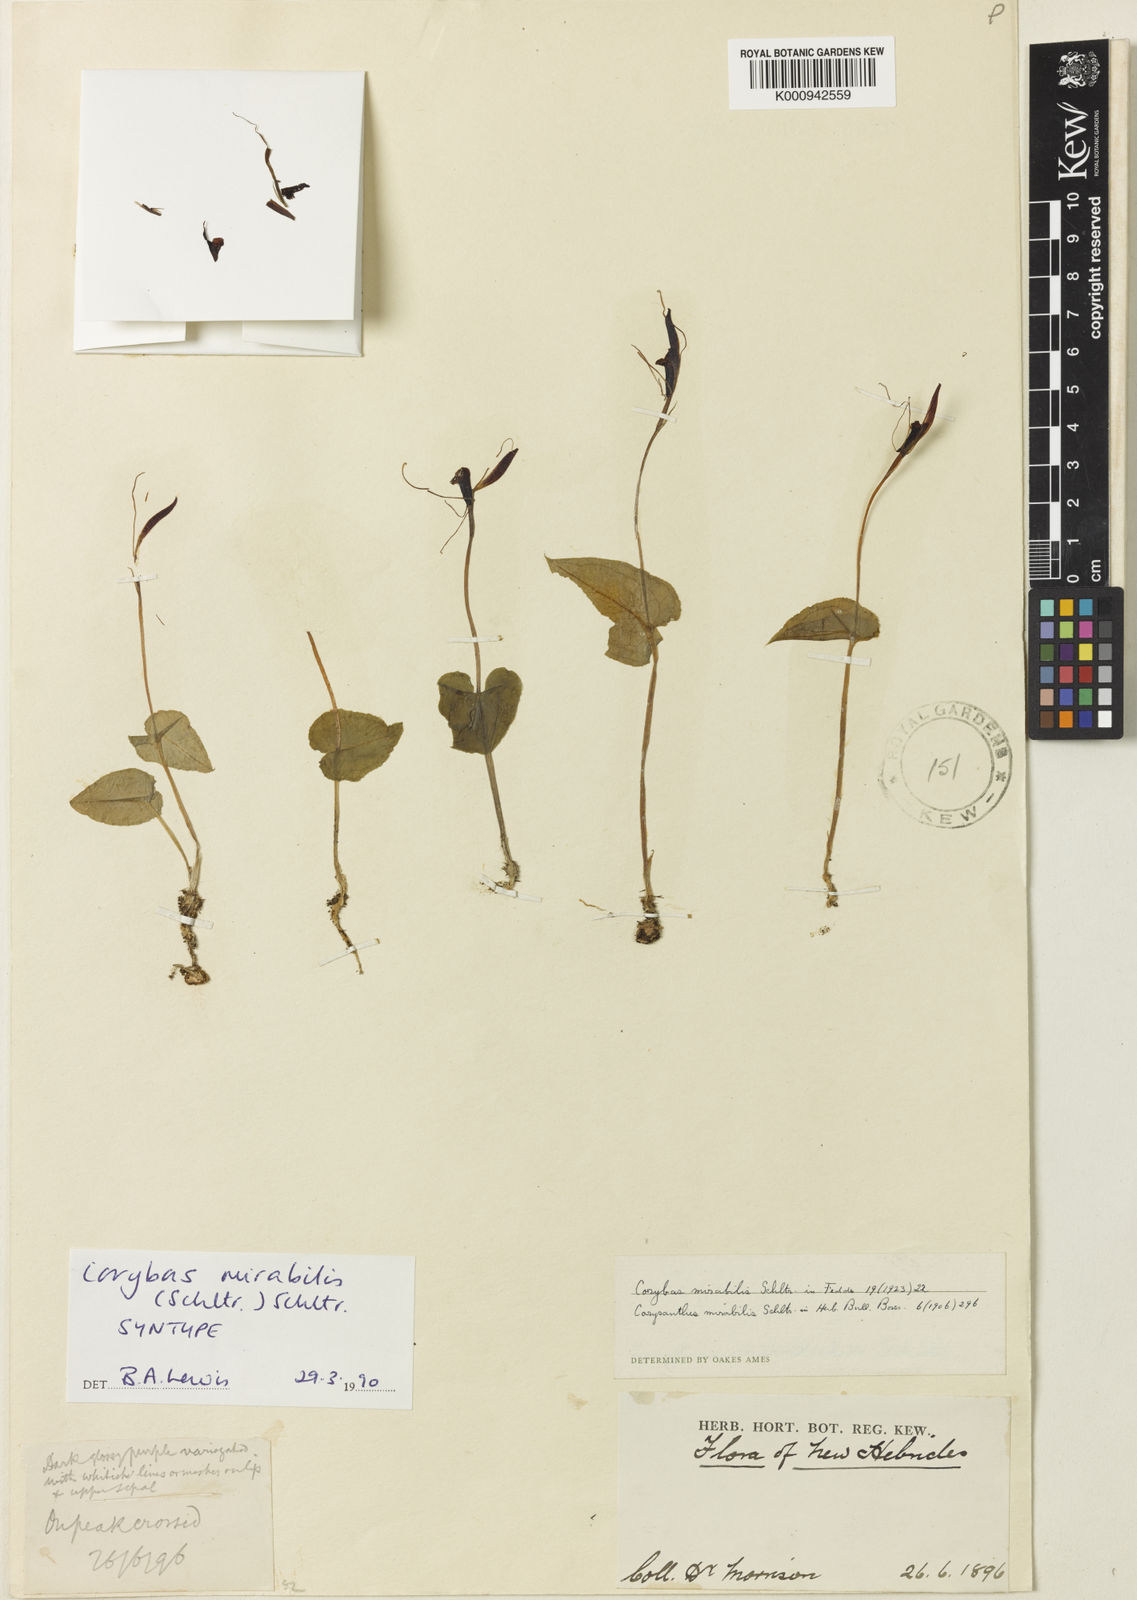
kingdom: Plantae
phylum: Tracheophyta
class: Liliopsida
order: Asparagales
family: Orchidaceae
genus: Corybas
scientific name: Corybas mirabilis
